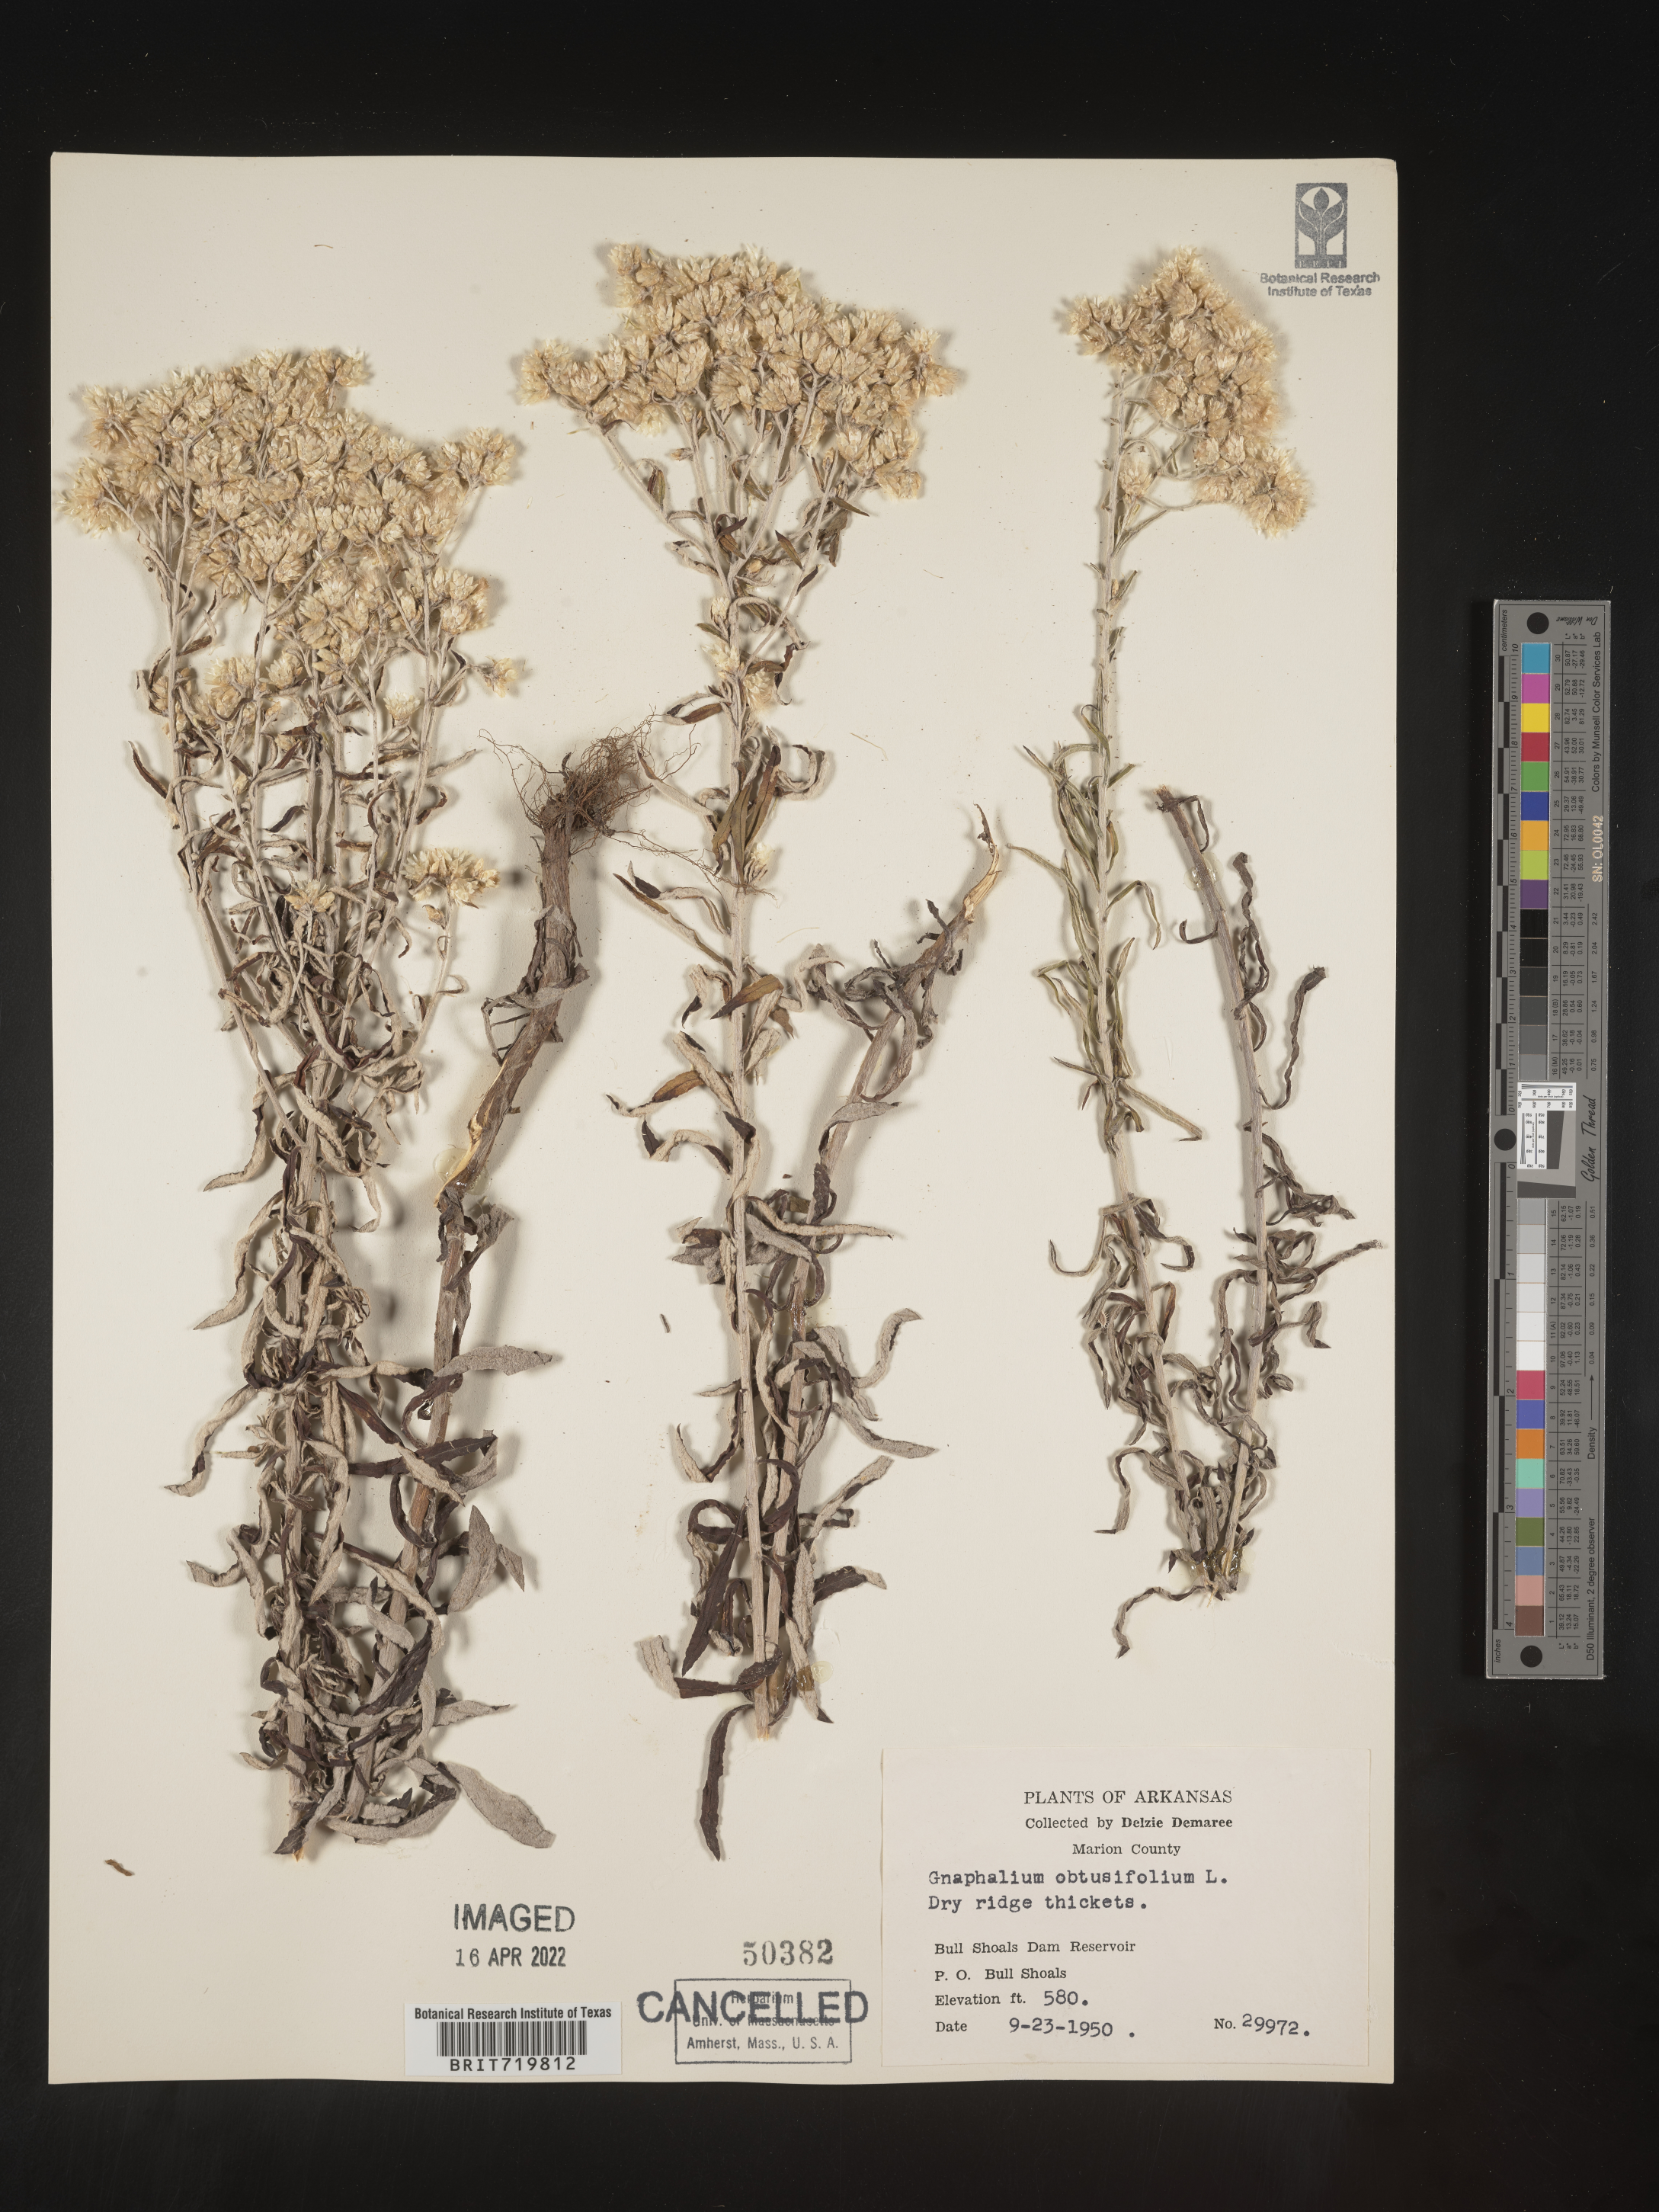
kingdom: Plantae
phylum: Tracheophyta
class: Magnoliopsida
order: Asterales
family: Asteraceae
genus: Gnaphalium
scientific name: Gnaphalium
